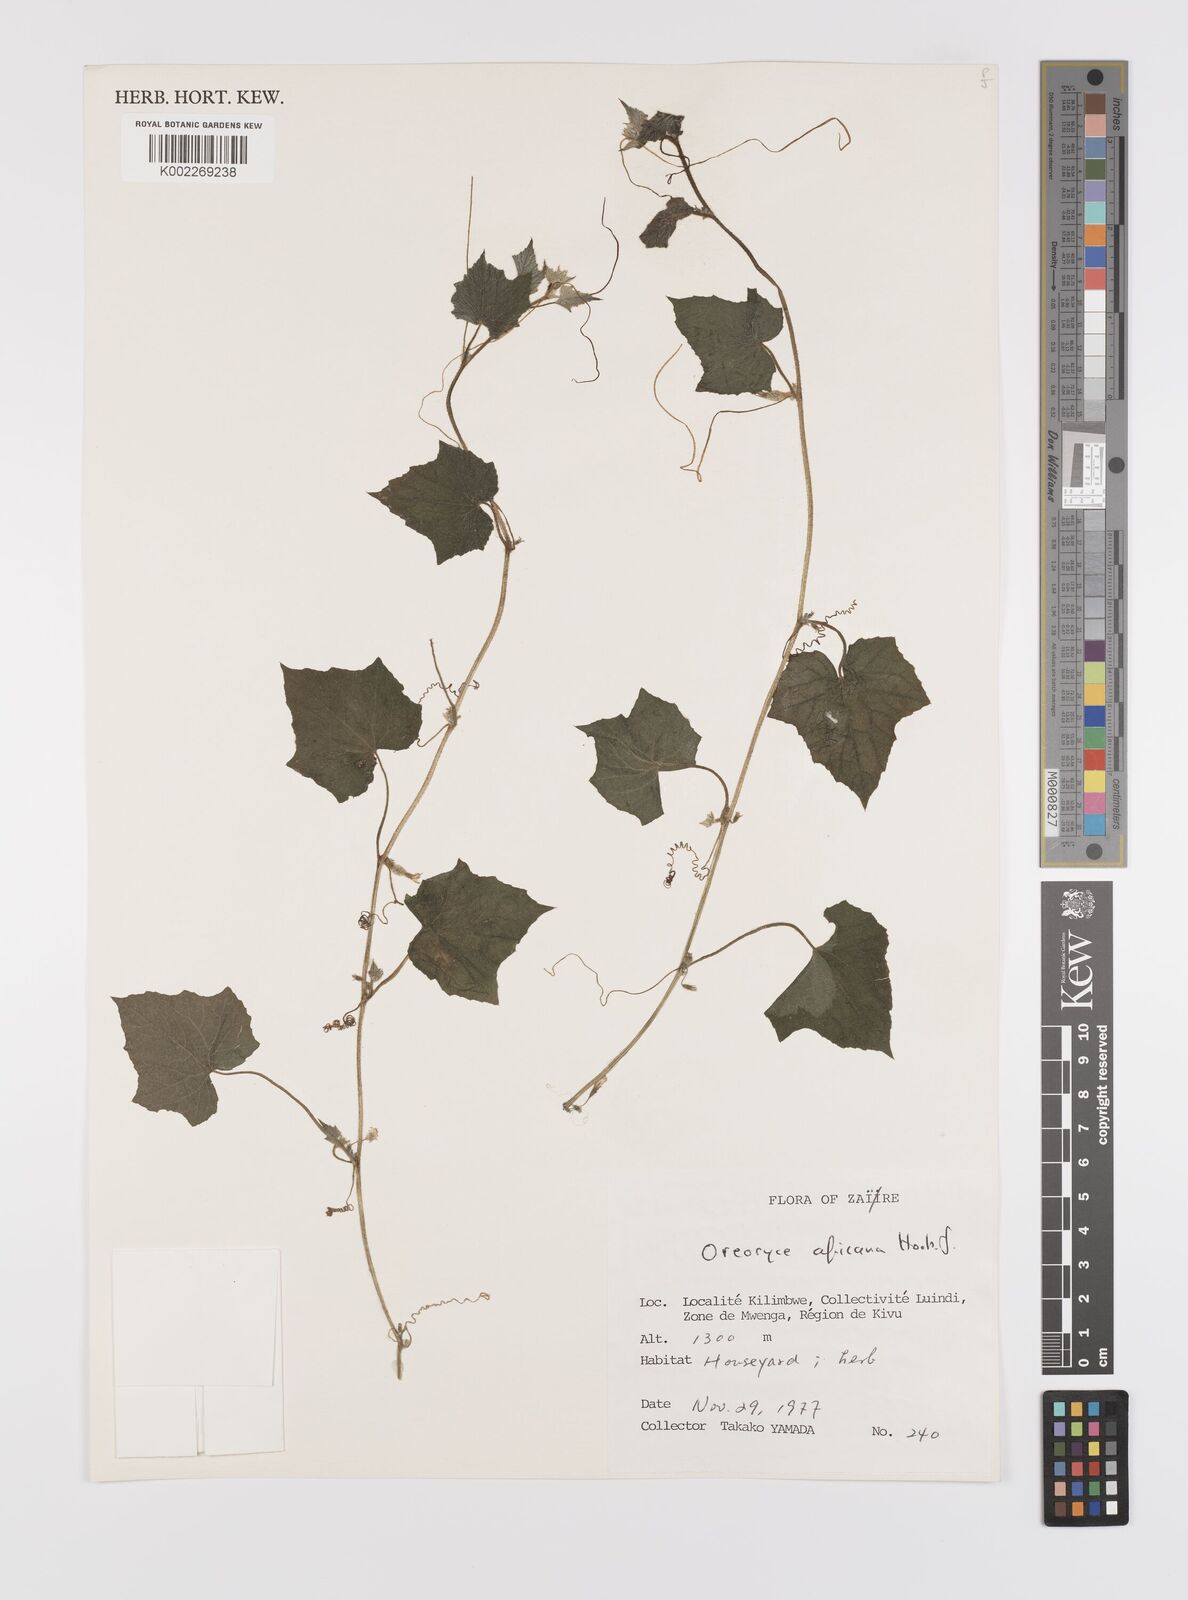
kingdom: Plantae
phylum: Tracheophyta
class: Magnoliopsida
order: Cucurbitales
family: Cucurbitaceae
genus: Cucumis
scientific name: Cucumis oreosyce
